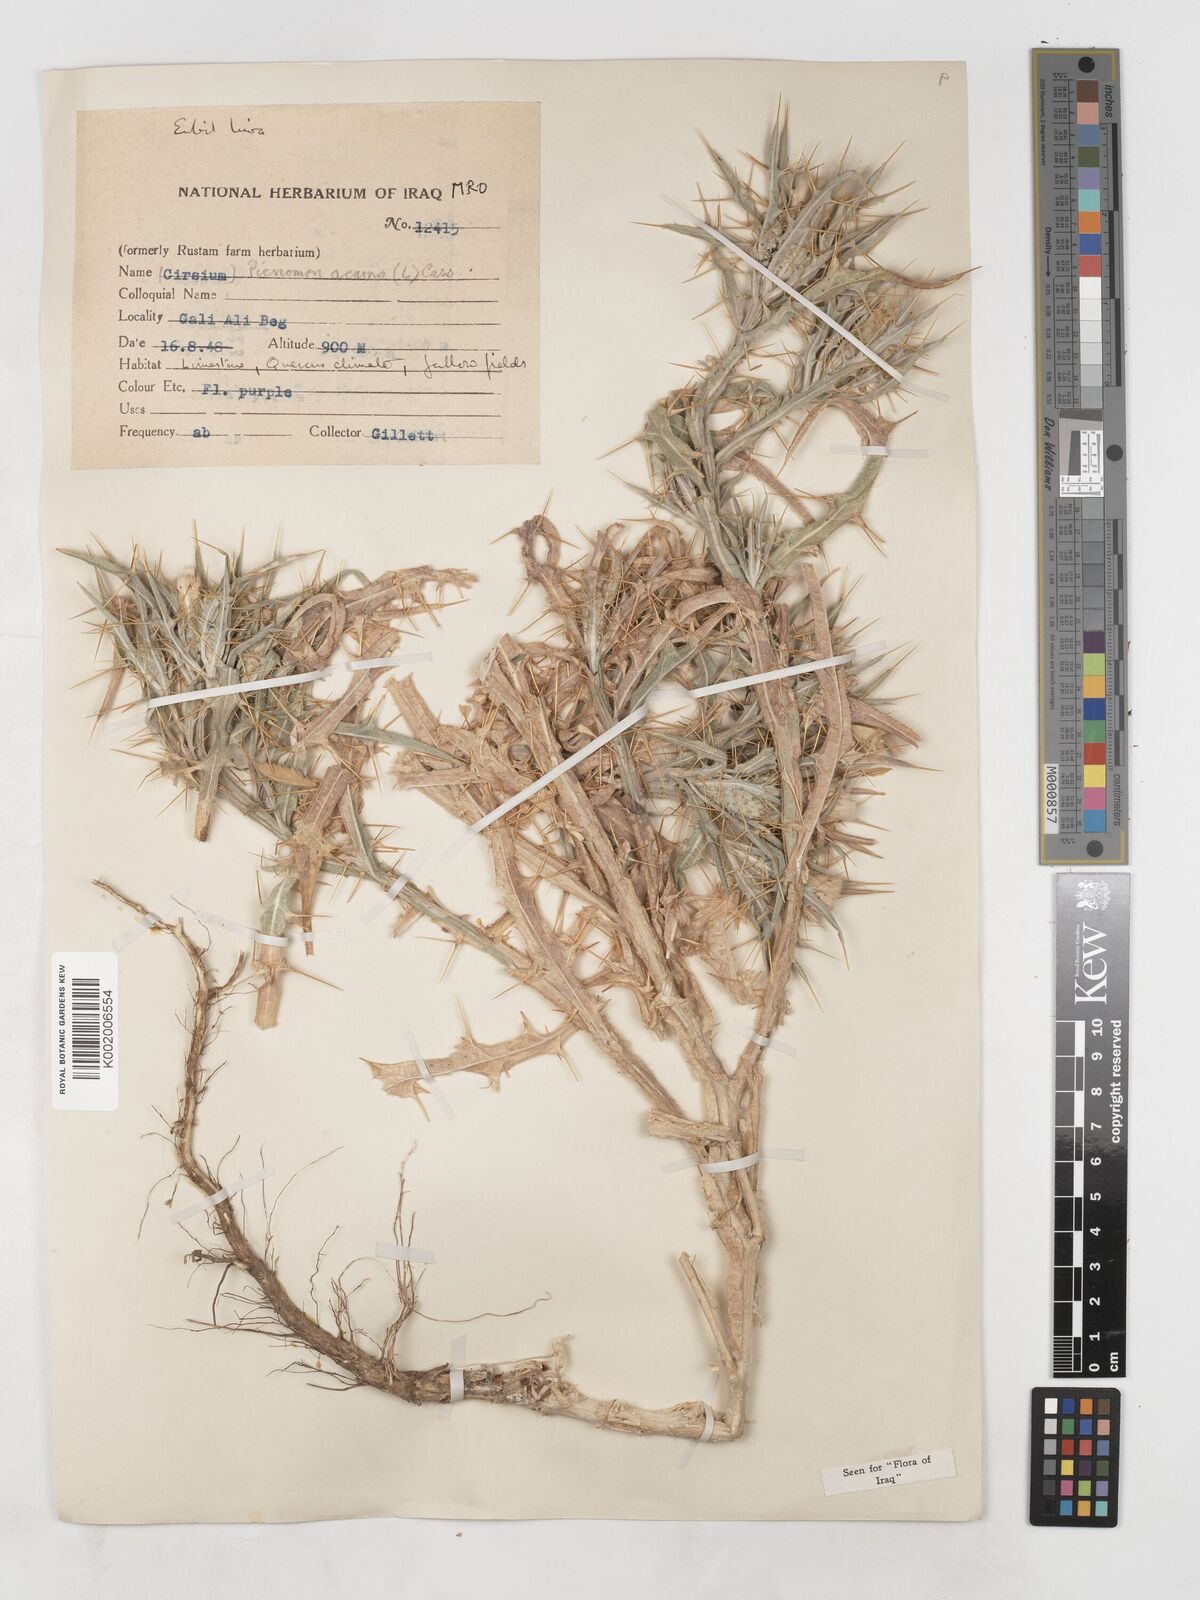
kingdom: Plantae
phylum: Tracheophyta
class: Magnoliopsida
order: Asterales
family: Asteraceae
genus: Picnomon
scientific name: Picnomon acarna
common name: Soldier thistle
